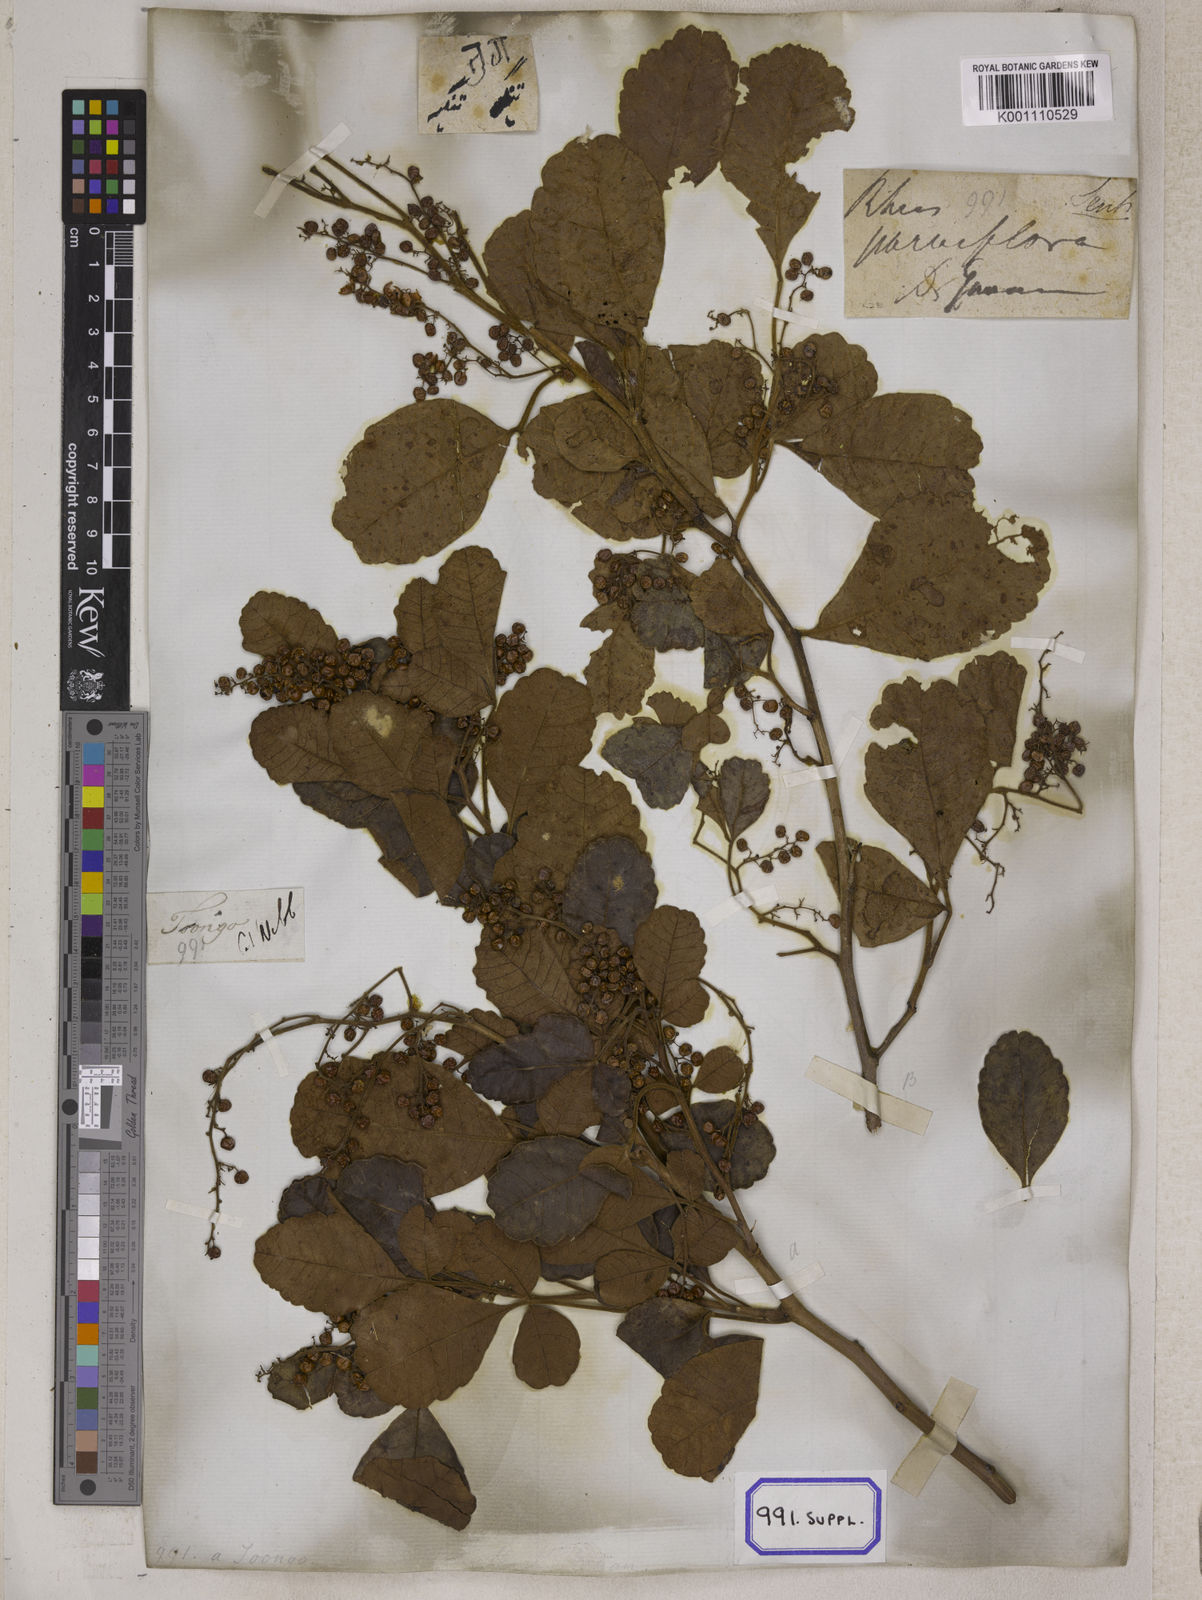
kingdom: Plantae
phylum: Tracheophyta
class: Magnoliopsida
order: Sapindales
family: Anacardiaceae
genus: Searsia
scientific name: Searsia parviflora
